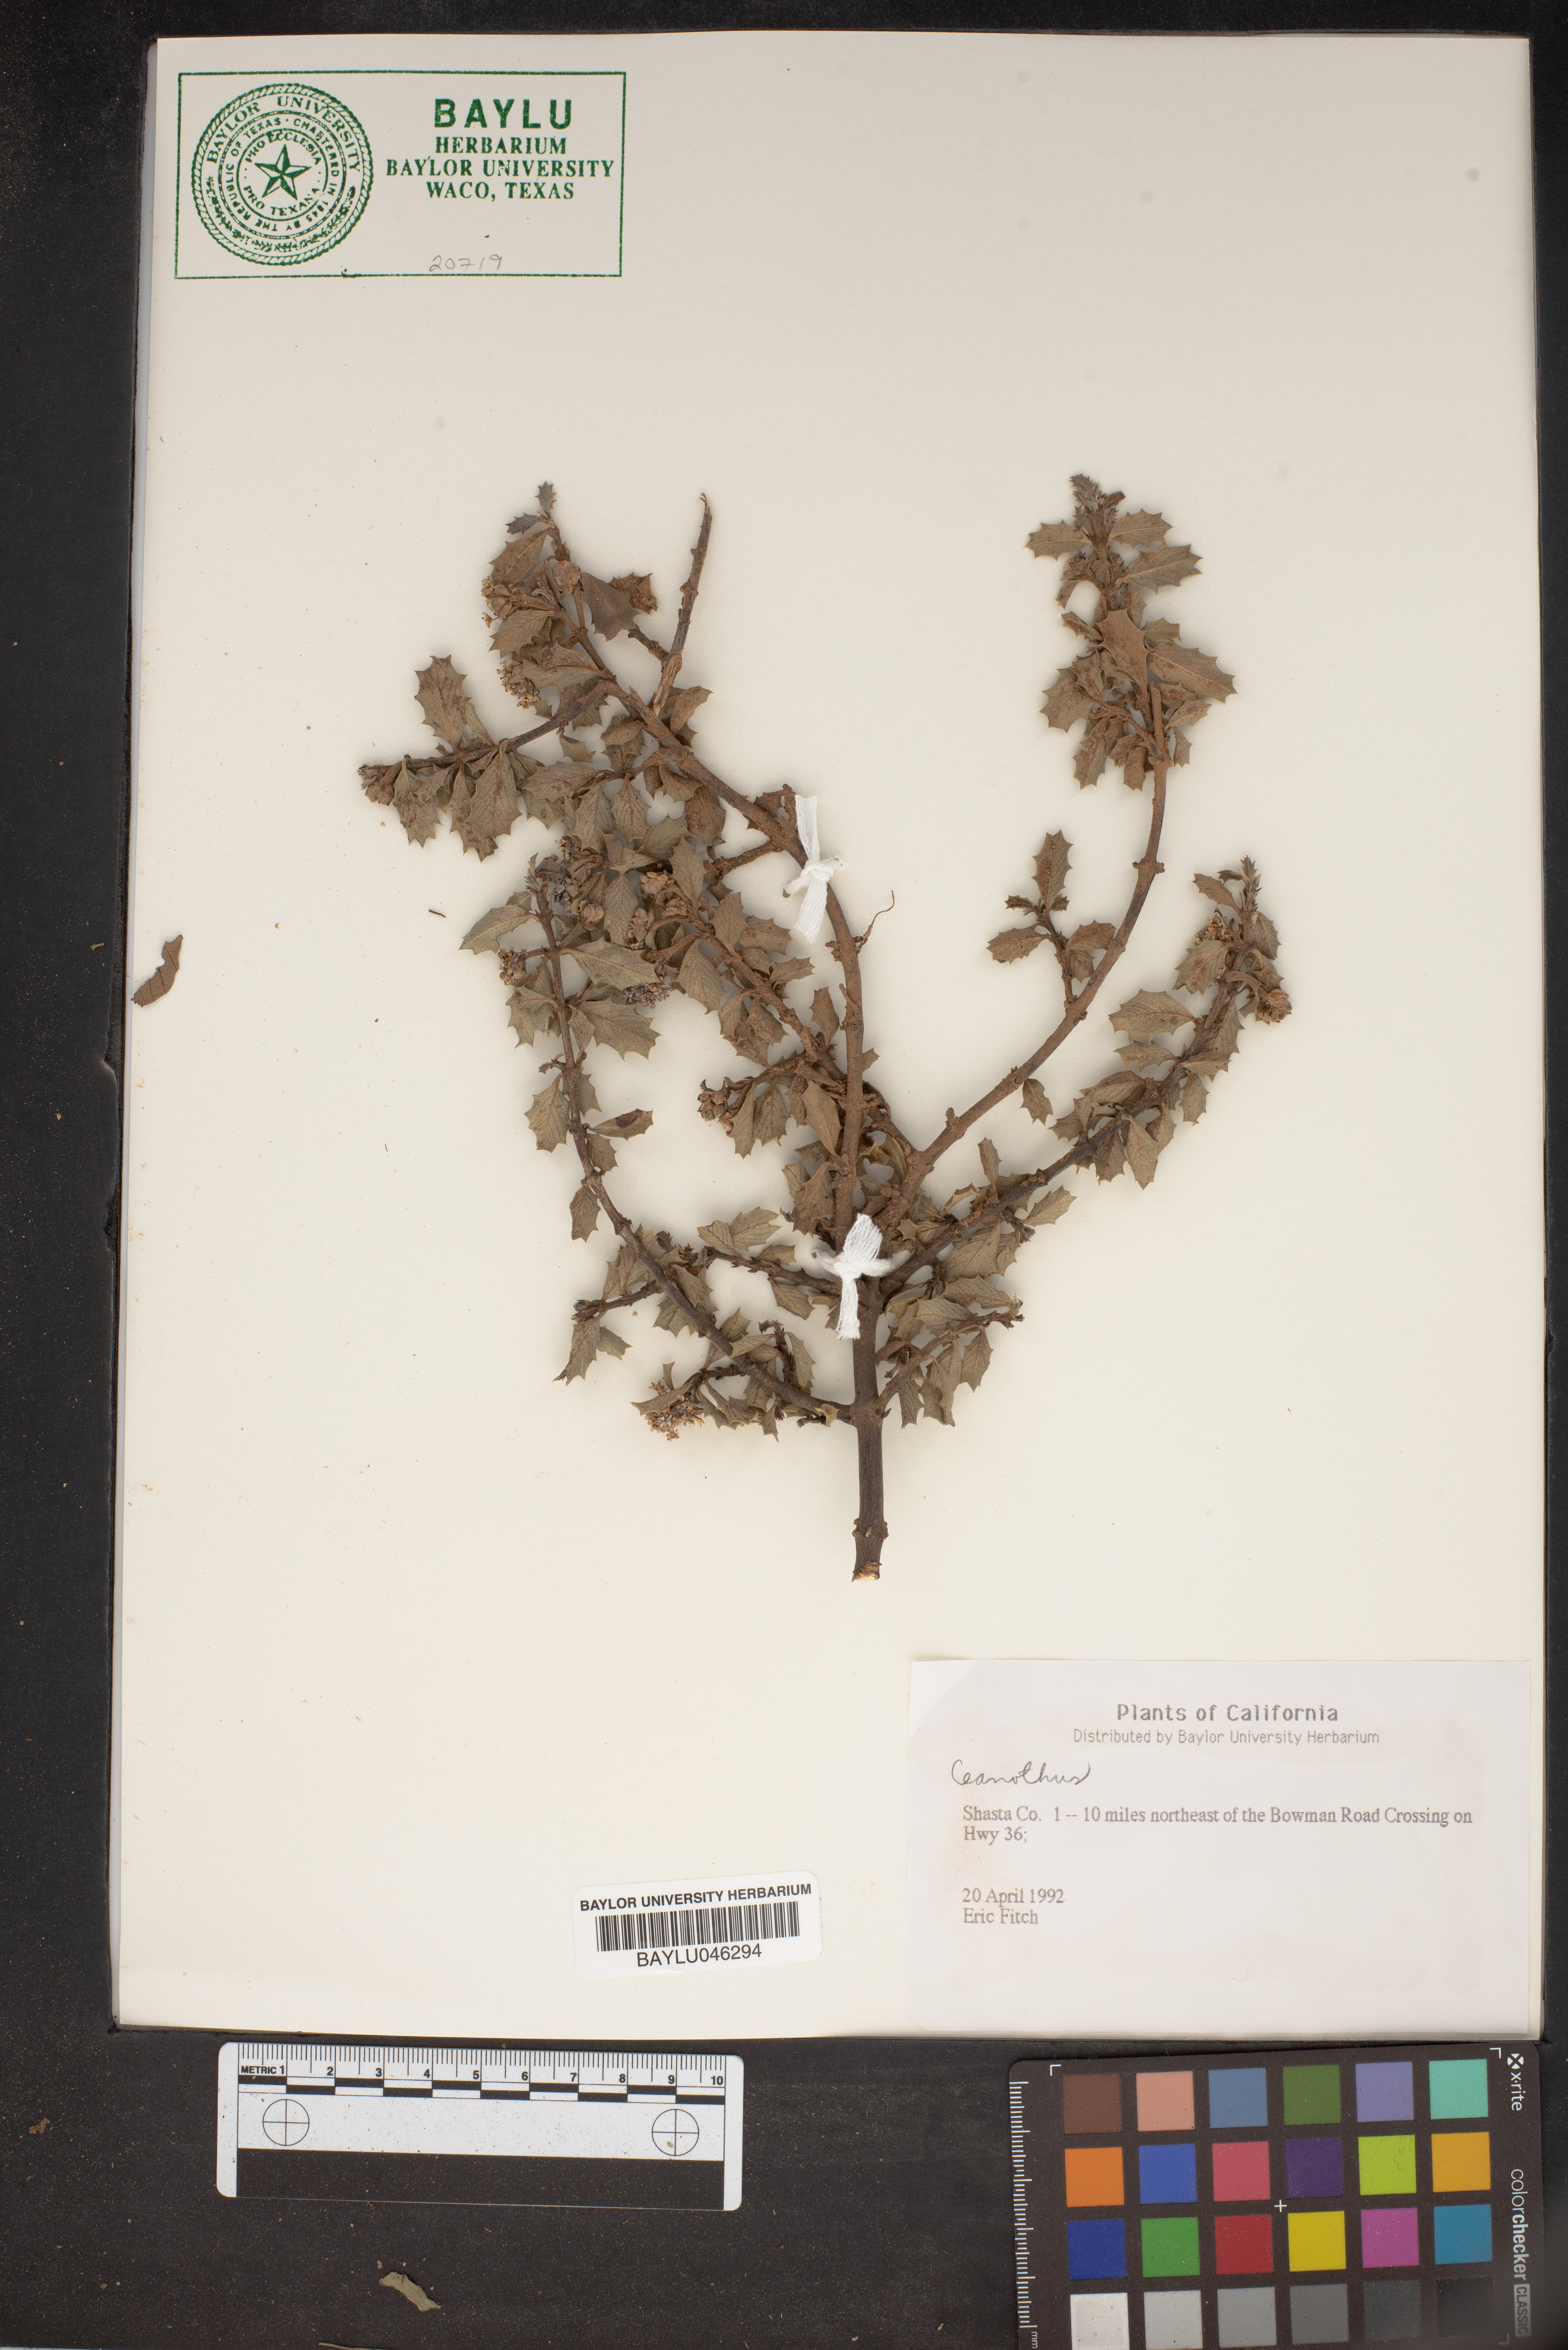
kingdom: Plantae
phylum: Tracheophyta
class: Magnoliopsida
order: Rosales
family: Rhamnaceae
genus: Ceanothus
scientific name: Ceanothus
